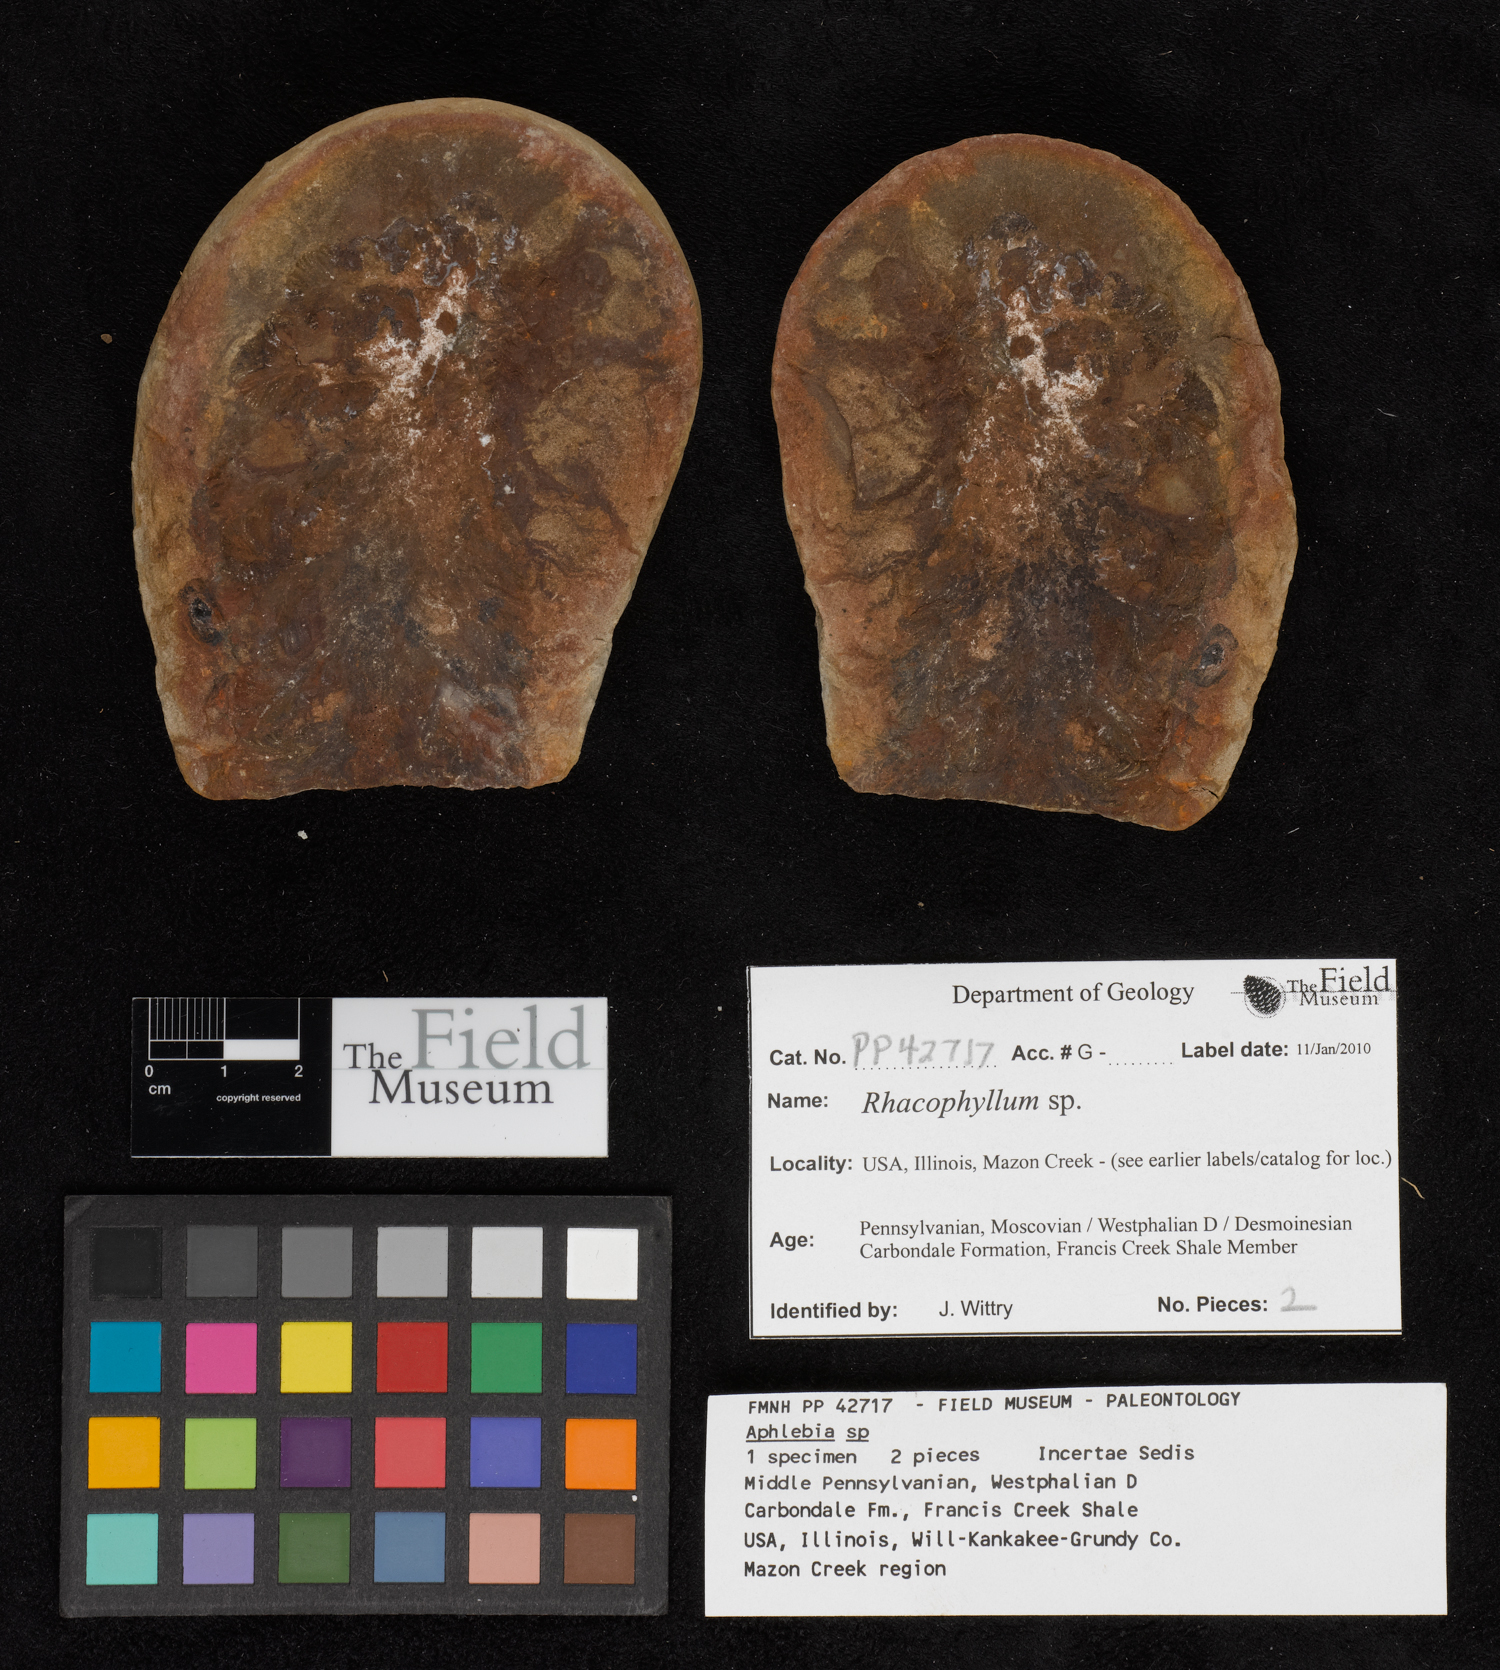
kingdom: Plantae
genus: Rhacophyllum
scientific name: Rhacophyllum
